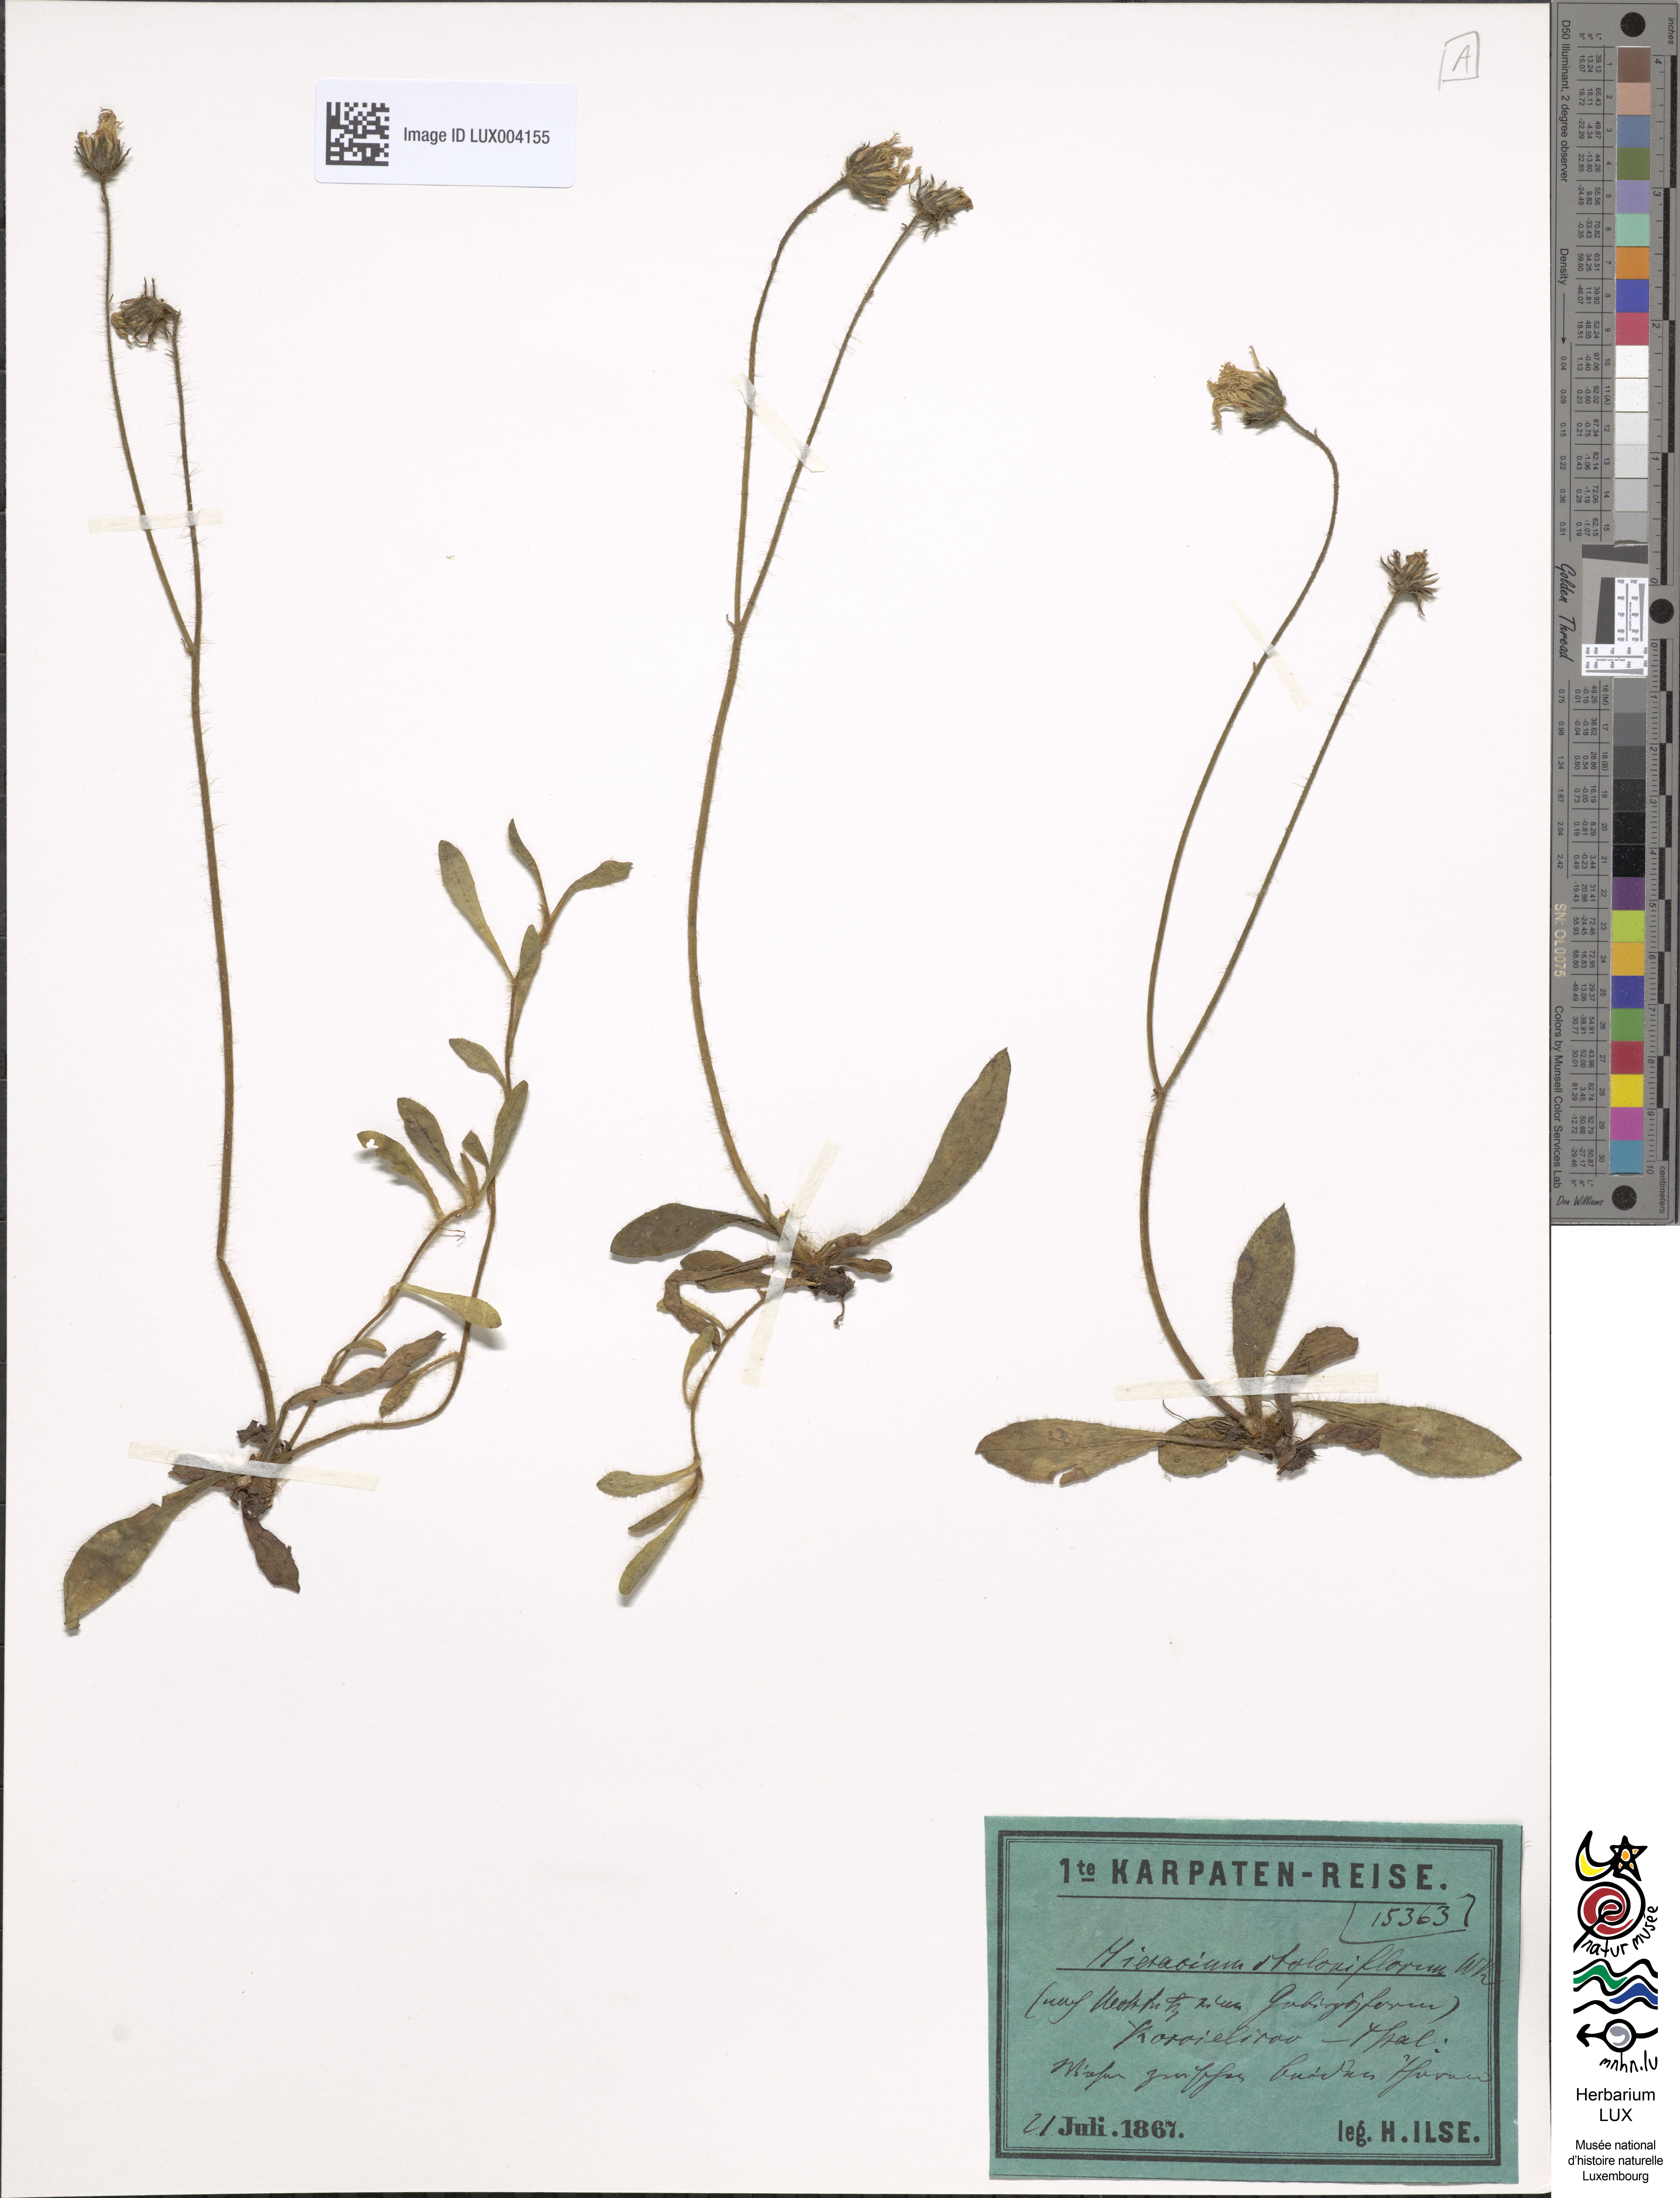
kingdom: Plantae
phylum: Tracheophyta
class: Magnoliopsida
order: Asterales
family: Asteraceae
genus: Pilosella
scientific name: Pilosella stoloniflora
